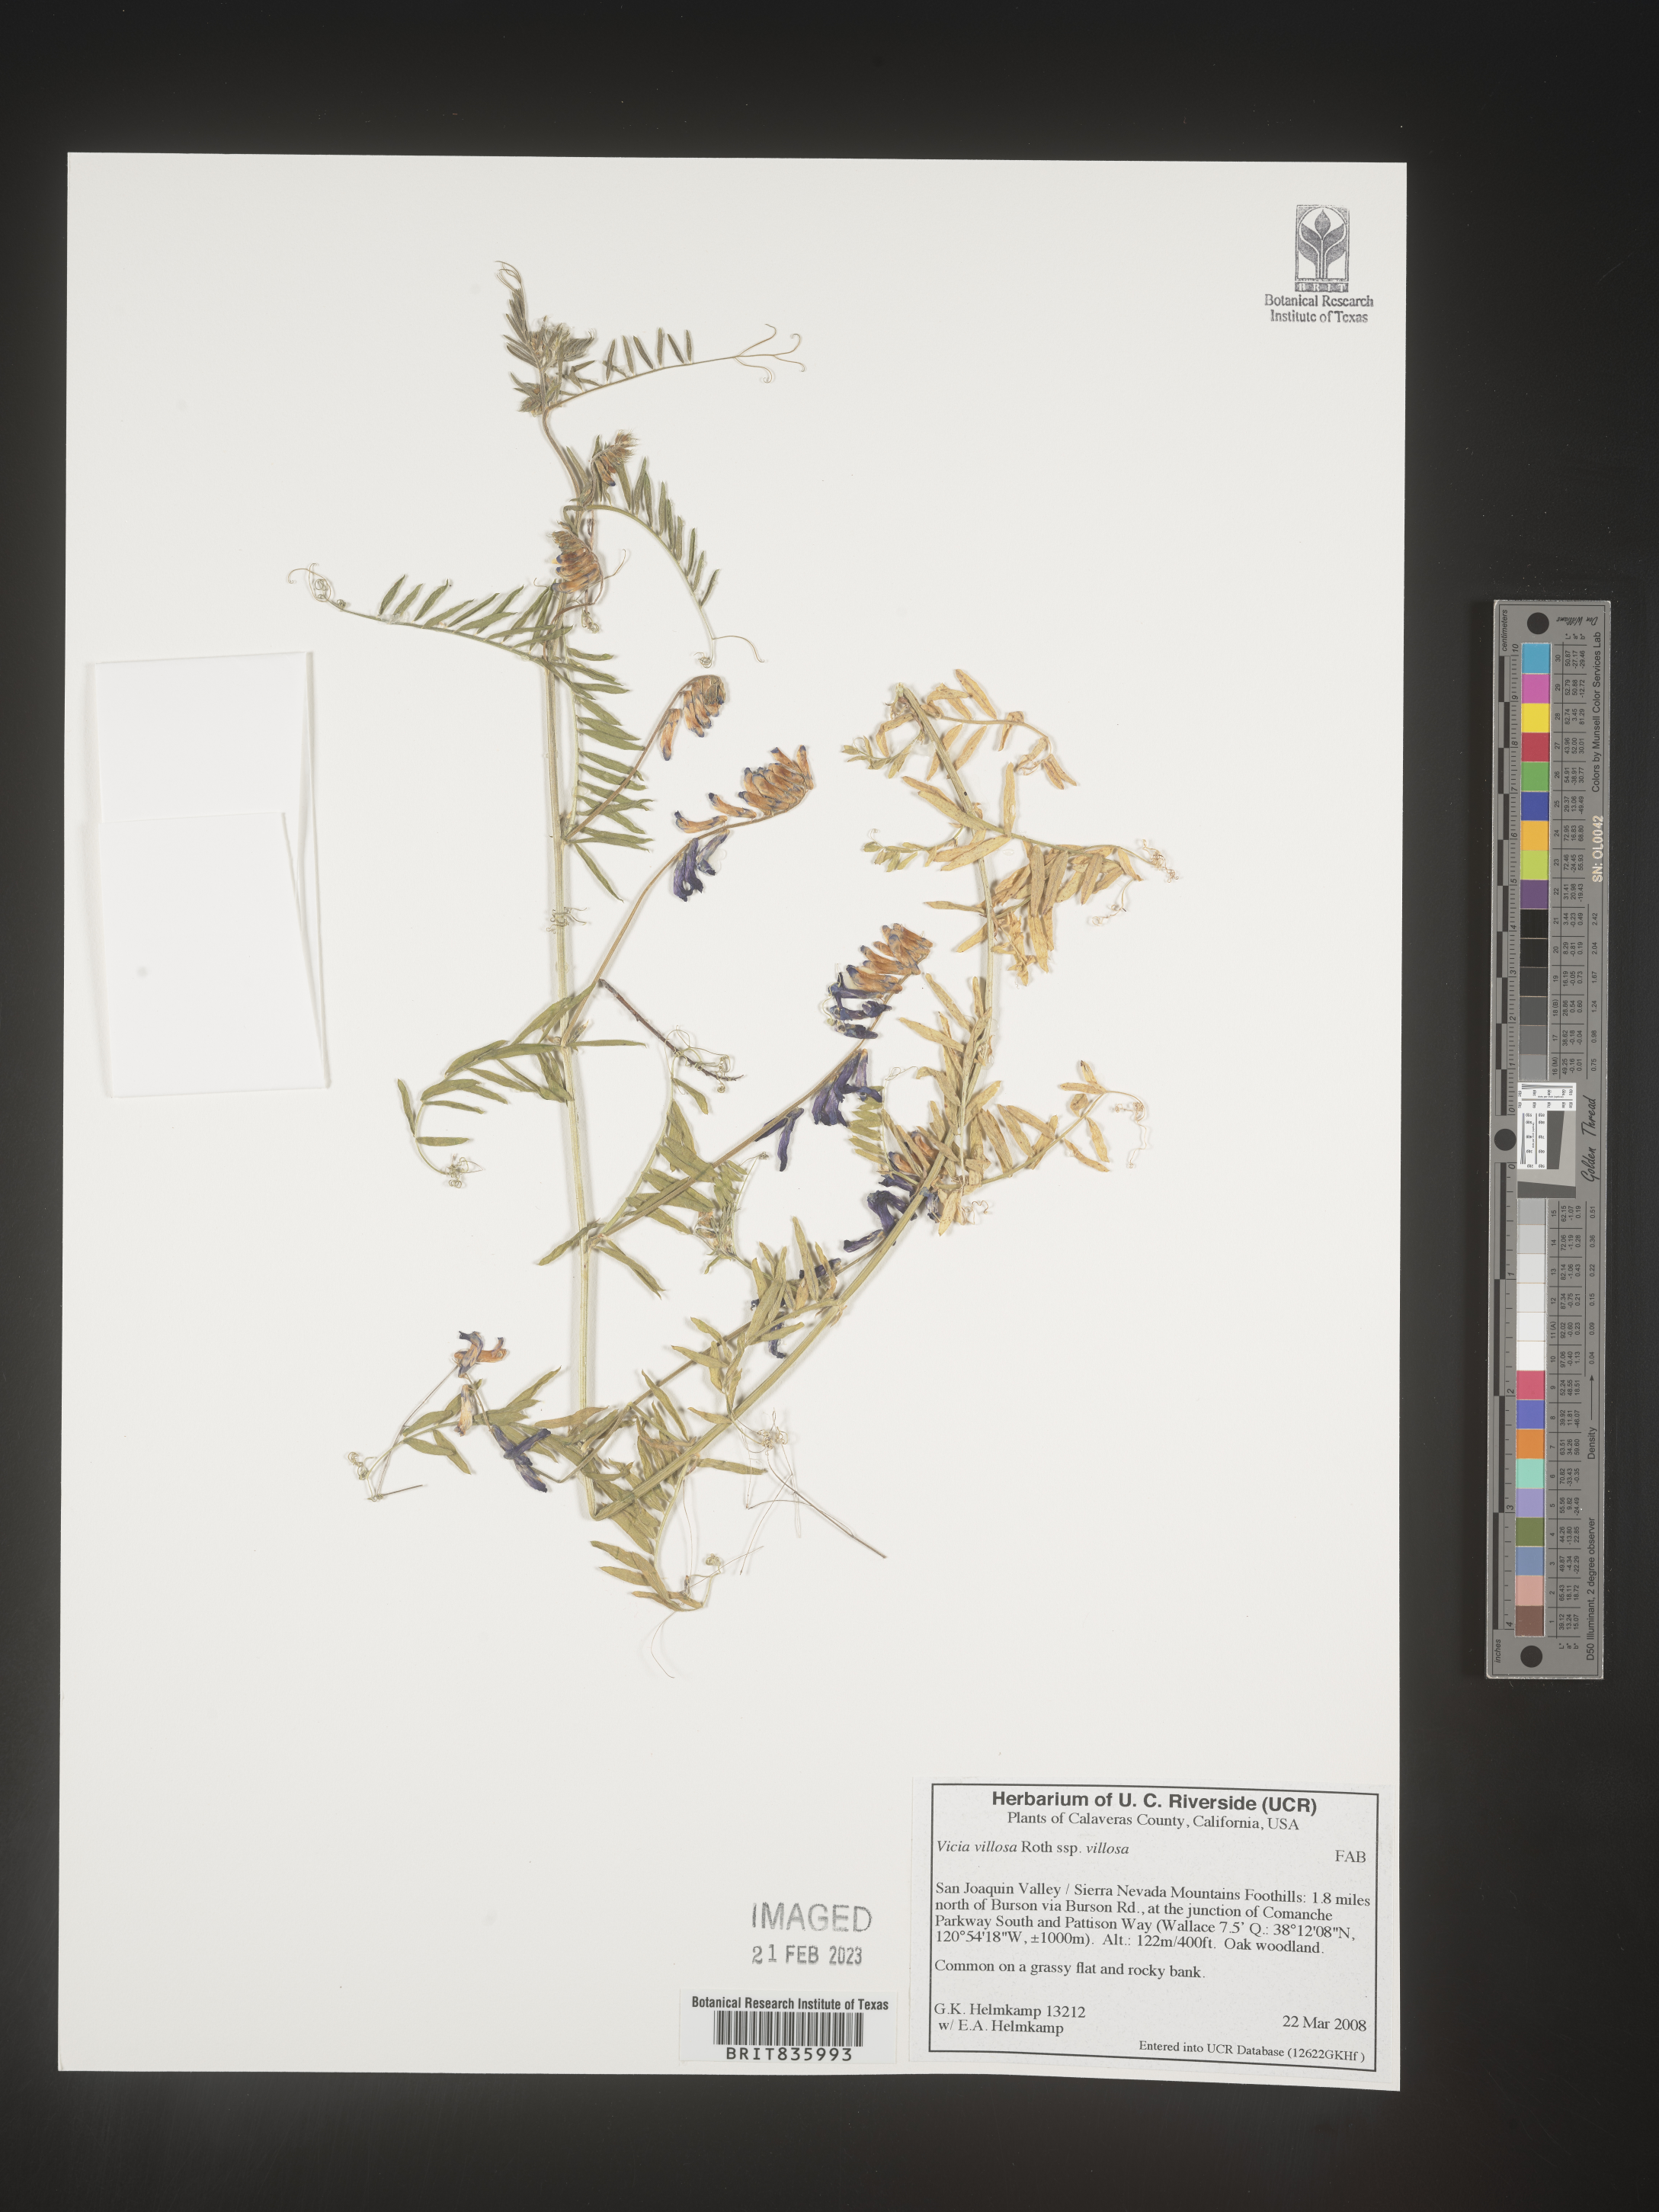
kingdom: Plantae
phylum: Tracheophyta
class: Magnoliopsida
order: Fabales
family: Fabaceae
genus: Vicia
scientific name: Vicia villosa
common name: Fodder vetch
